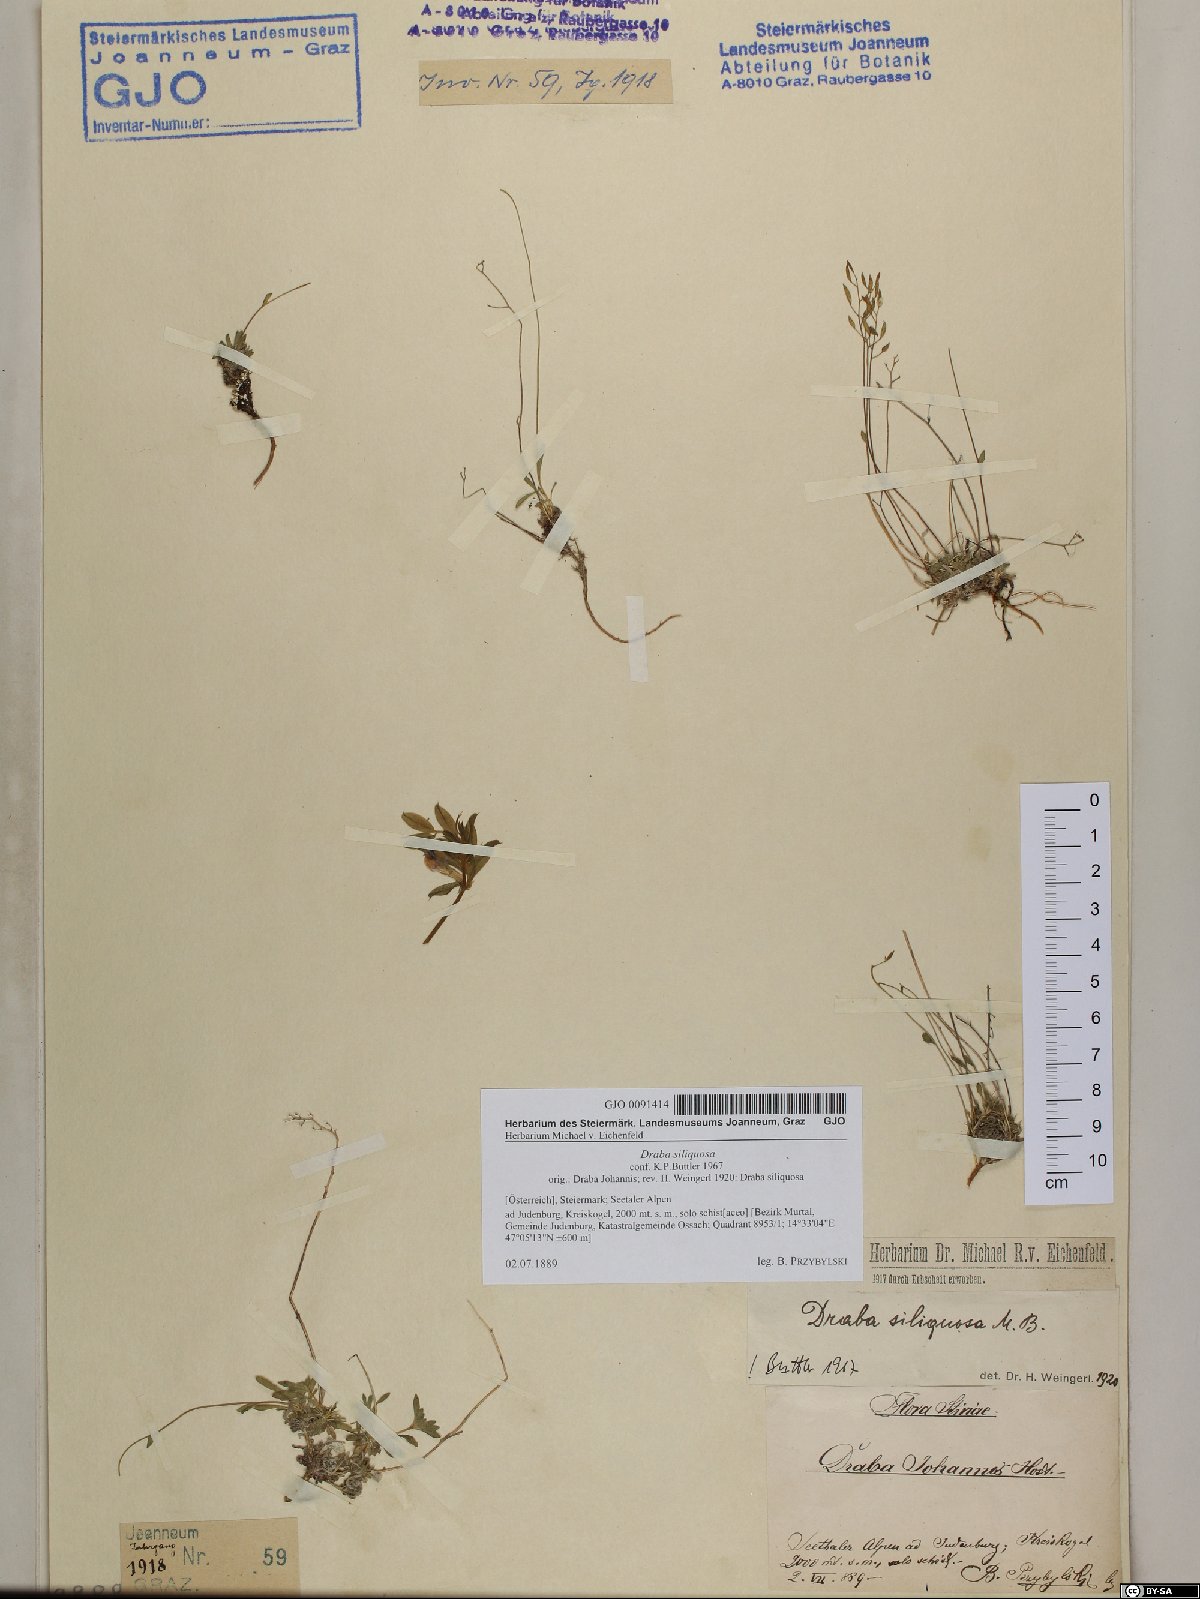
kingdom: Plantae
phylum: Tracheophyta
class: Magnoliopsida
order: Brassicales
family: Brassicaceae
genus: Draba
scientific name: Draba siliquosa
